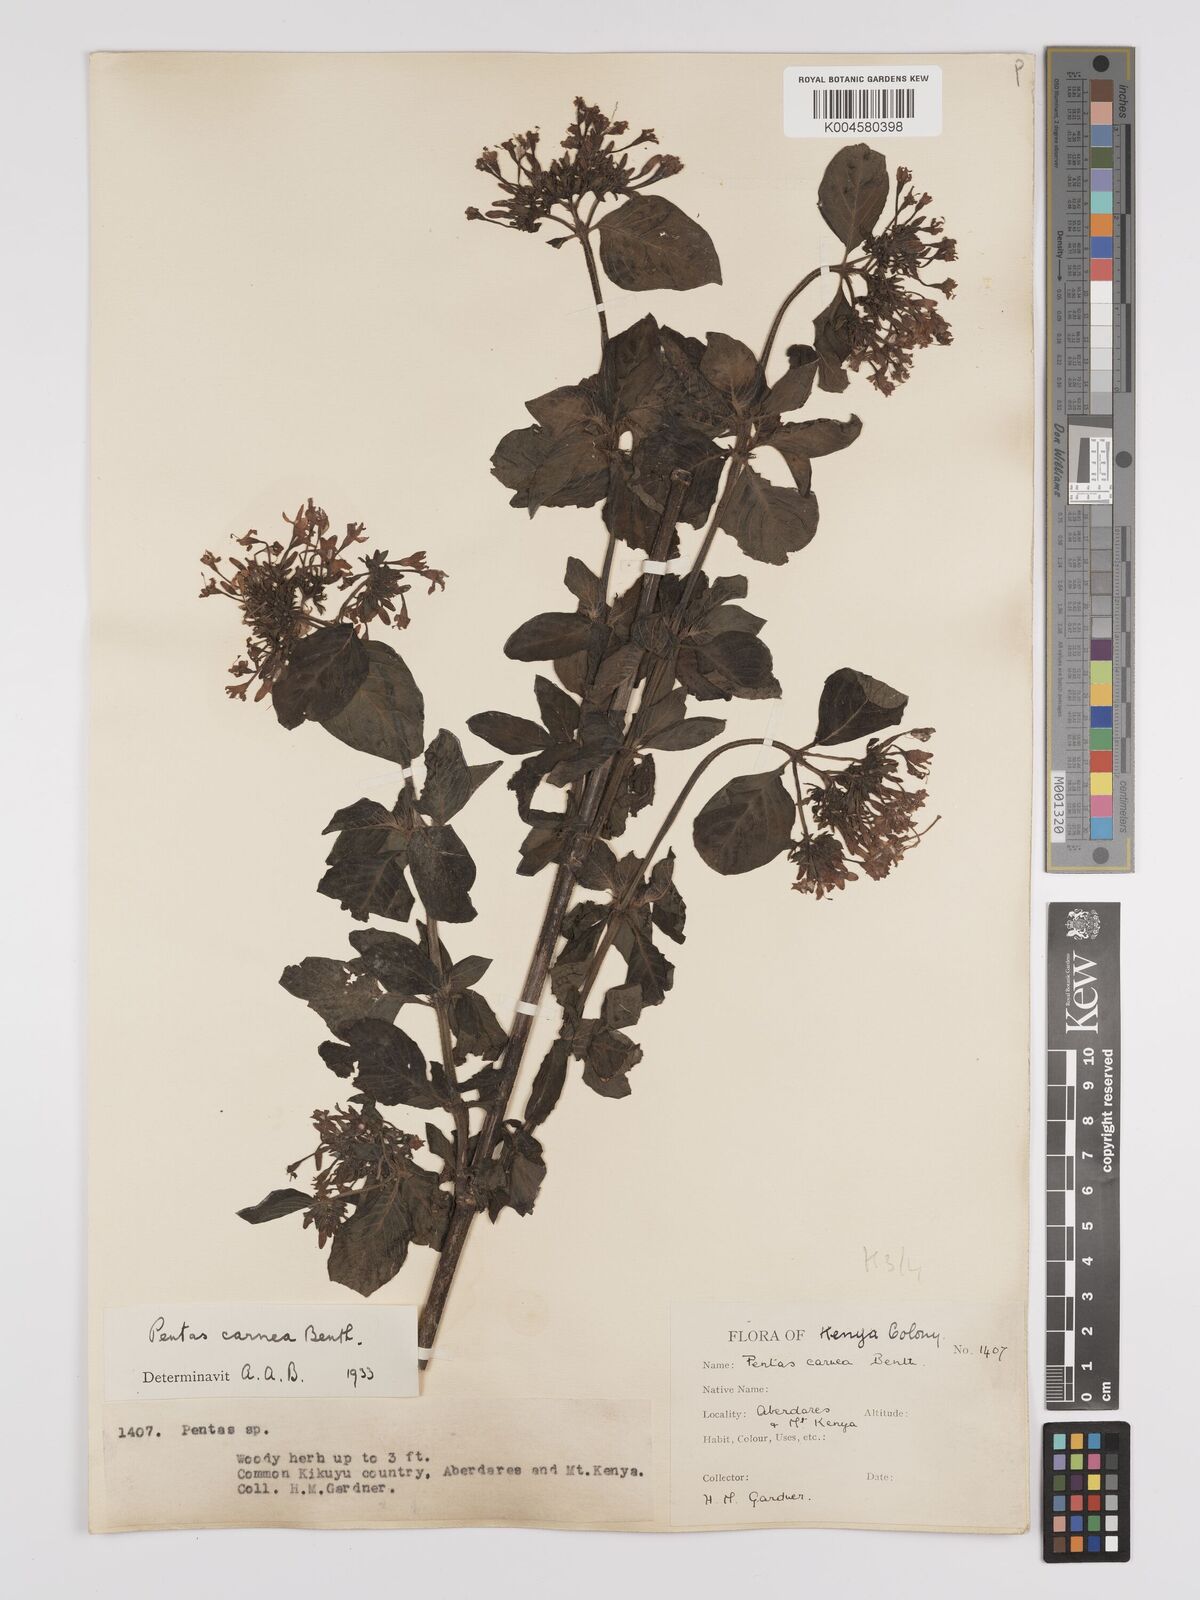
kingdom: Plantae
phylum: Tracheophyta
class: Magnoliopsida
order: Gentianales
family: Rubiaceae
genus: Pentas
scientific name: Pentas lanceolata
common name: Egyptian starcluster
